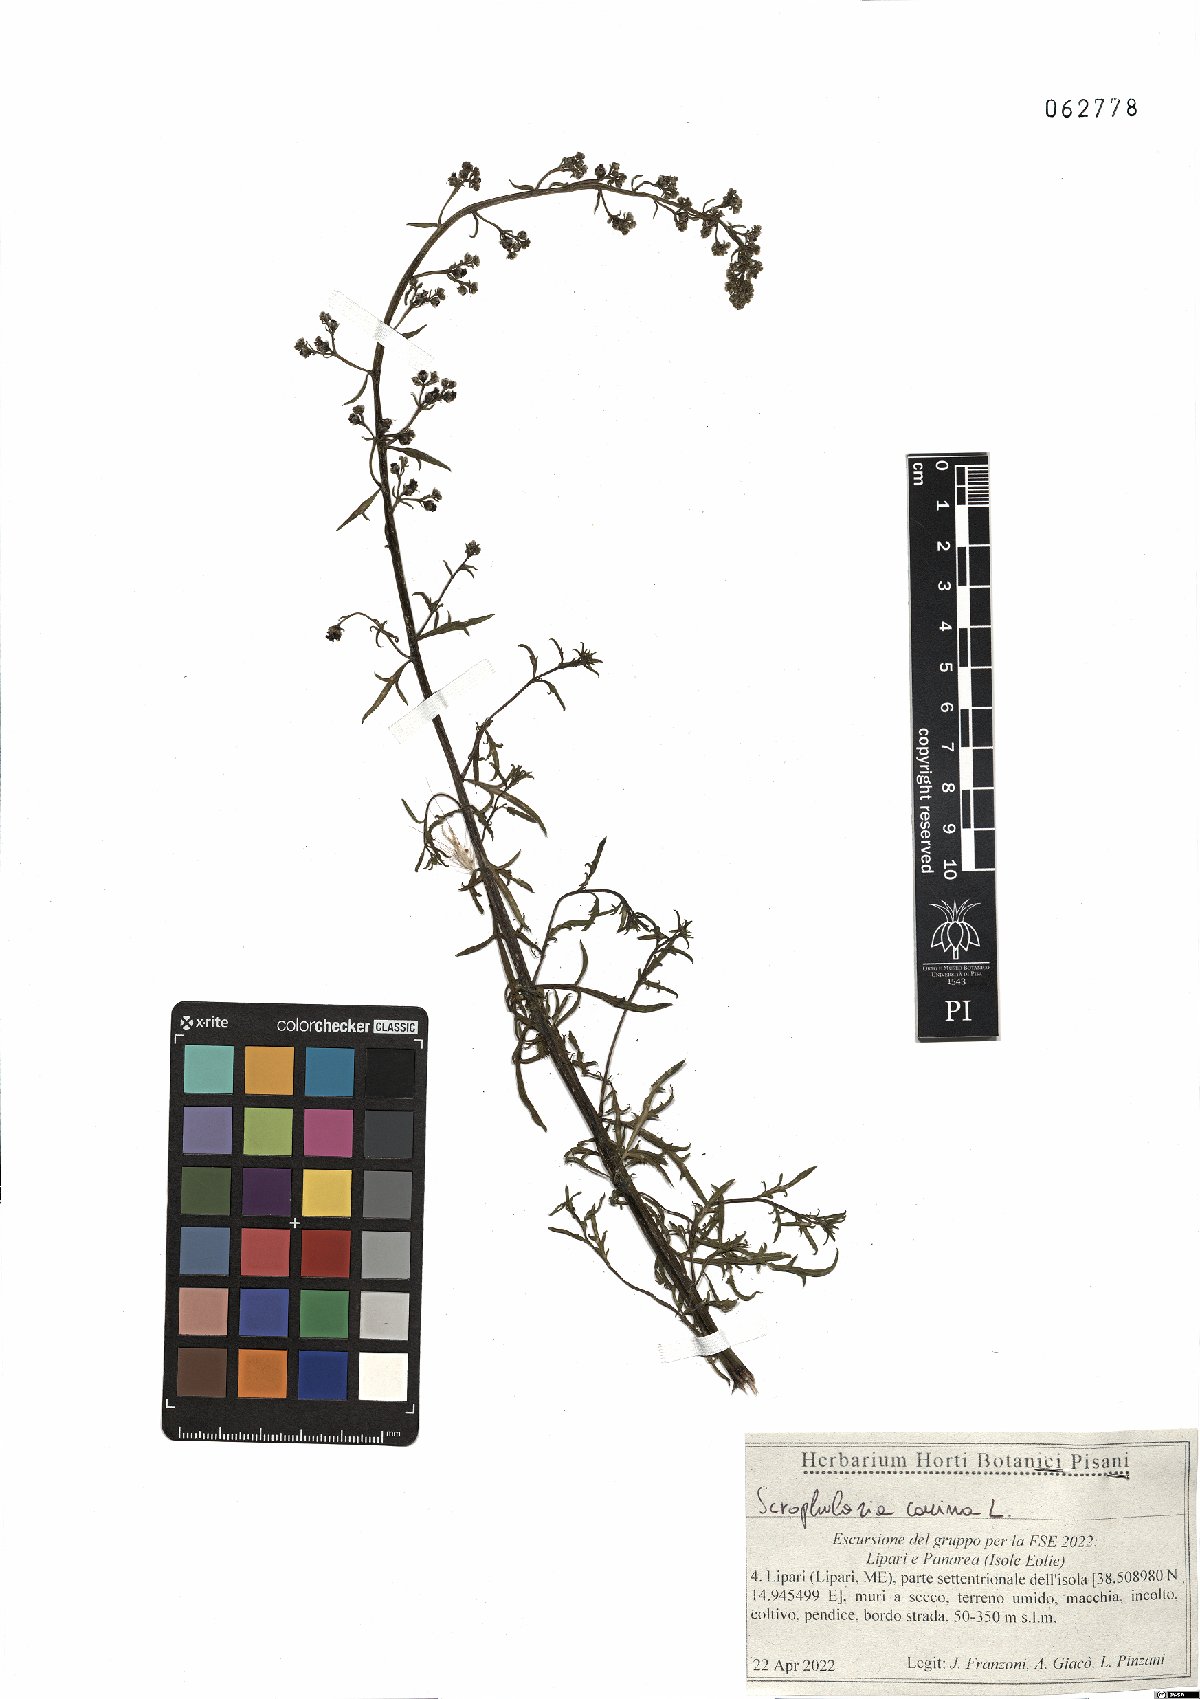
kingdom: Plantae
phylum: Tracheophyta
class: Magnoliopsida
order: Lamiales
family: Scrophulariaceae
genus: Scrophularia
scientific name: Scrophularia canina
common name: French figwort
